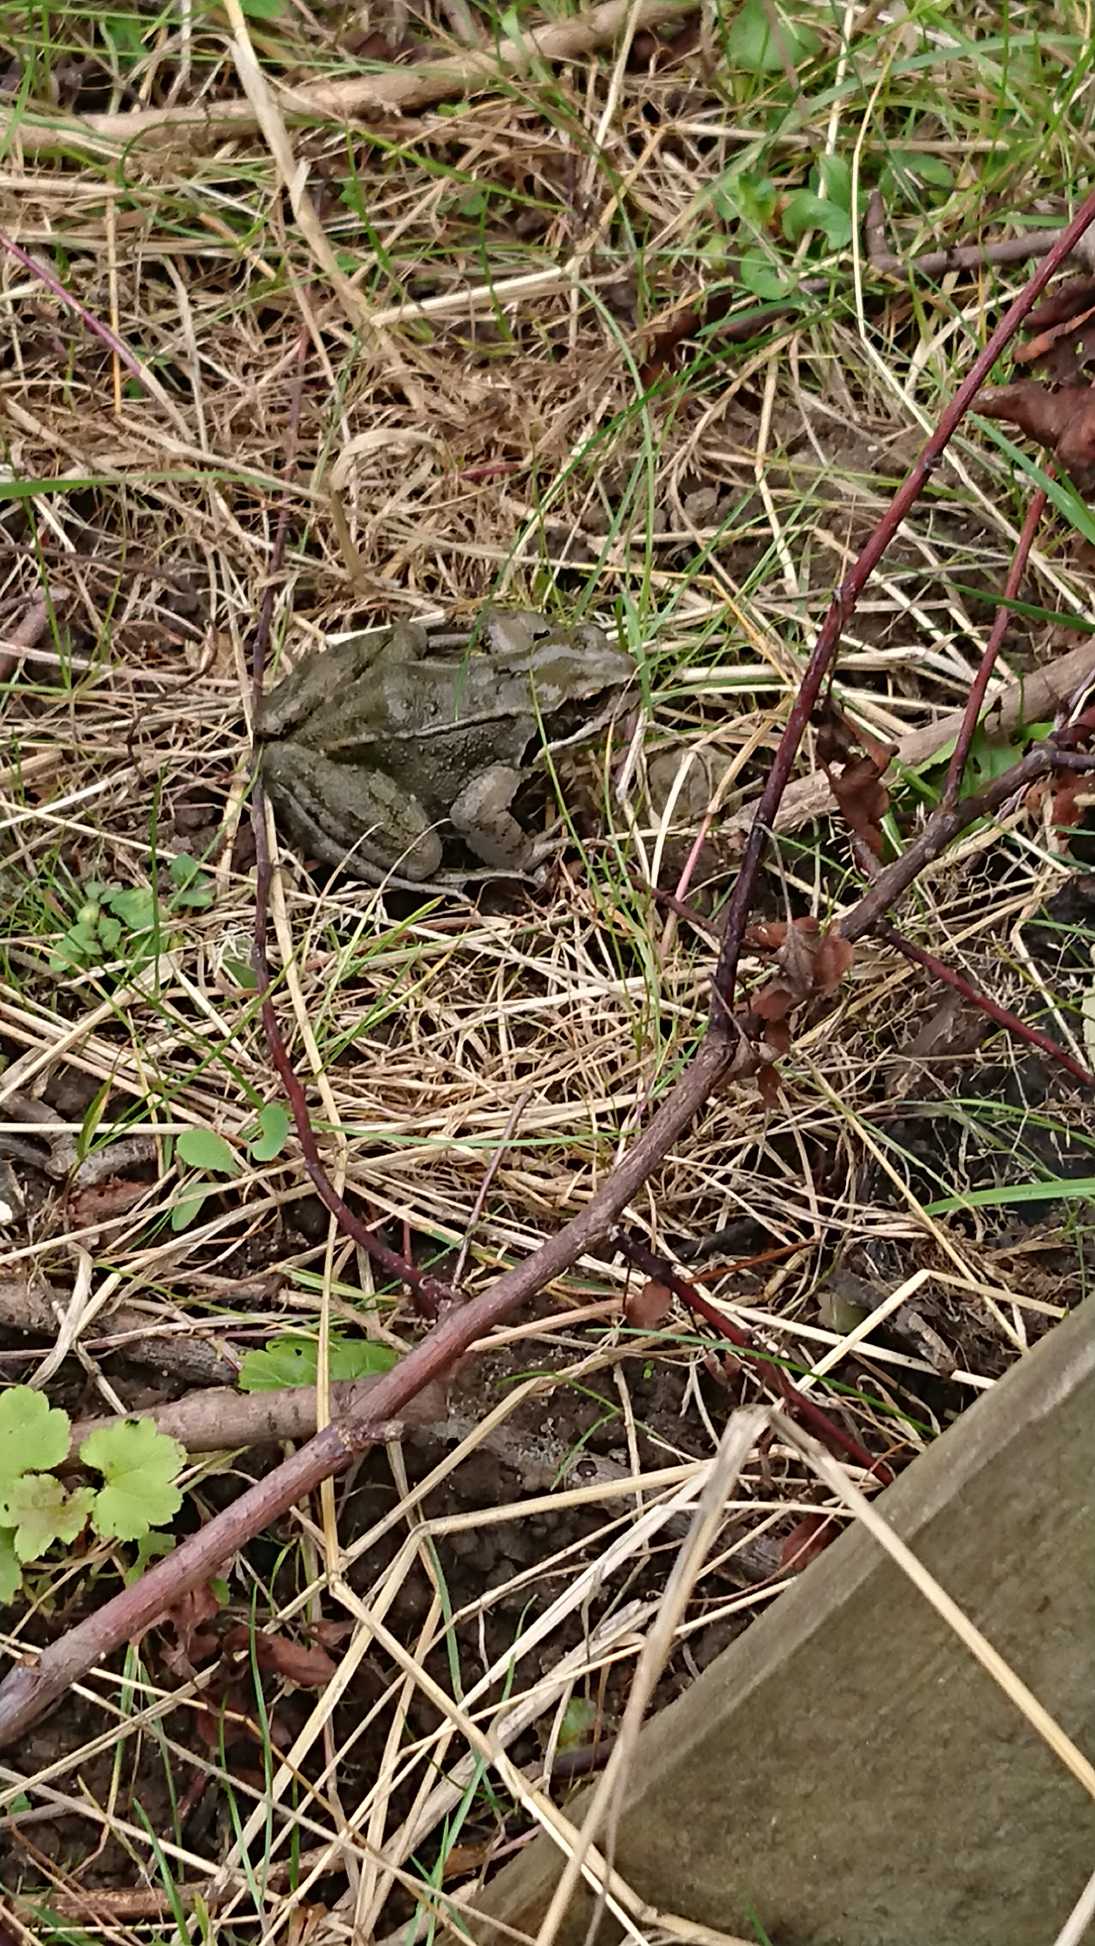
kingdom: Animalia
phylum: Chordata
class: Amphibia
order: Anura
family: Ranidae
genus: Rana
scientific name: Rana temporaria
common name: Butsnudet frø
